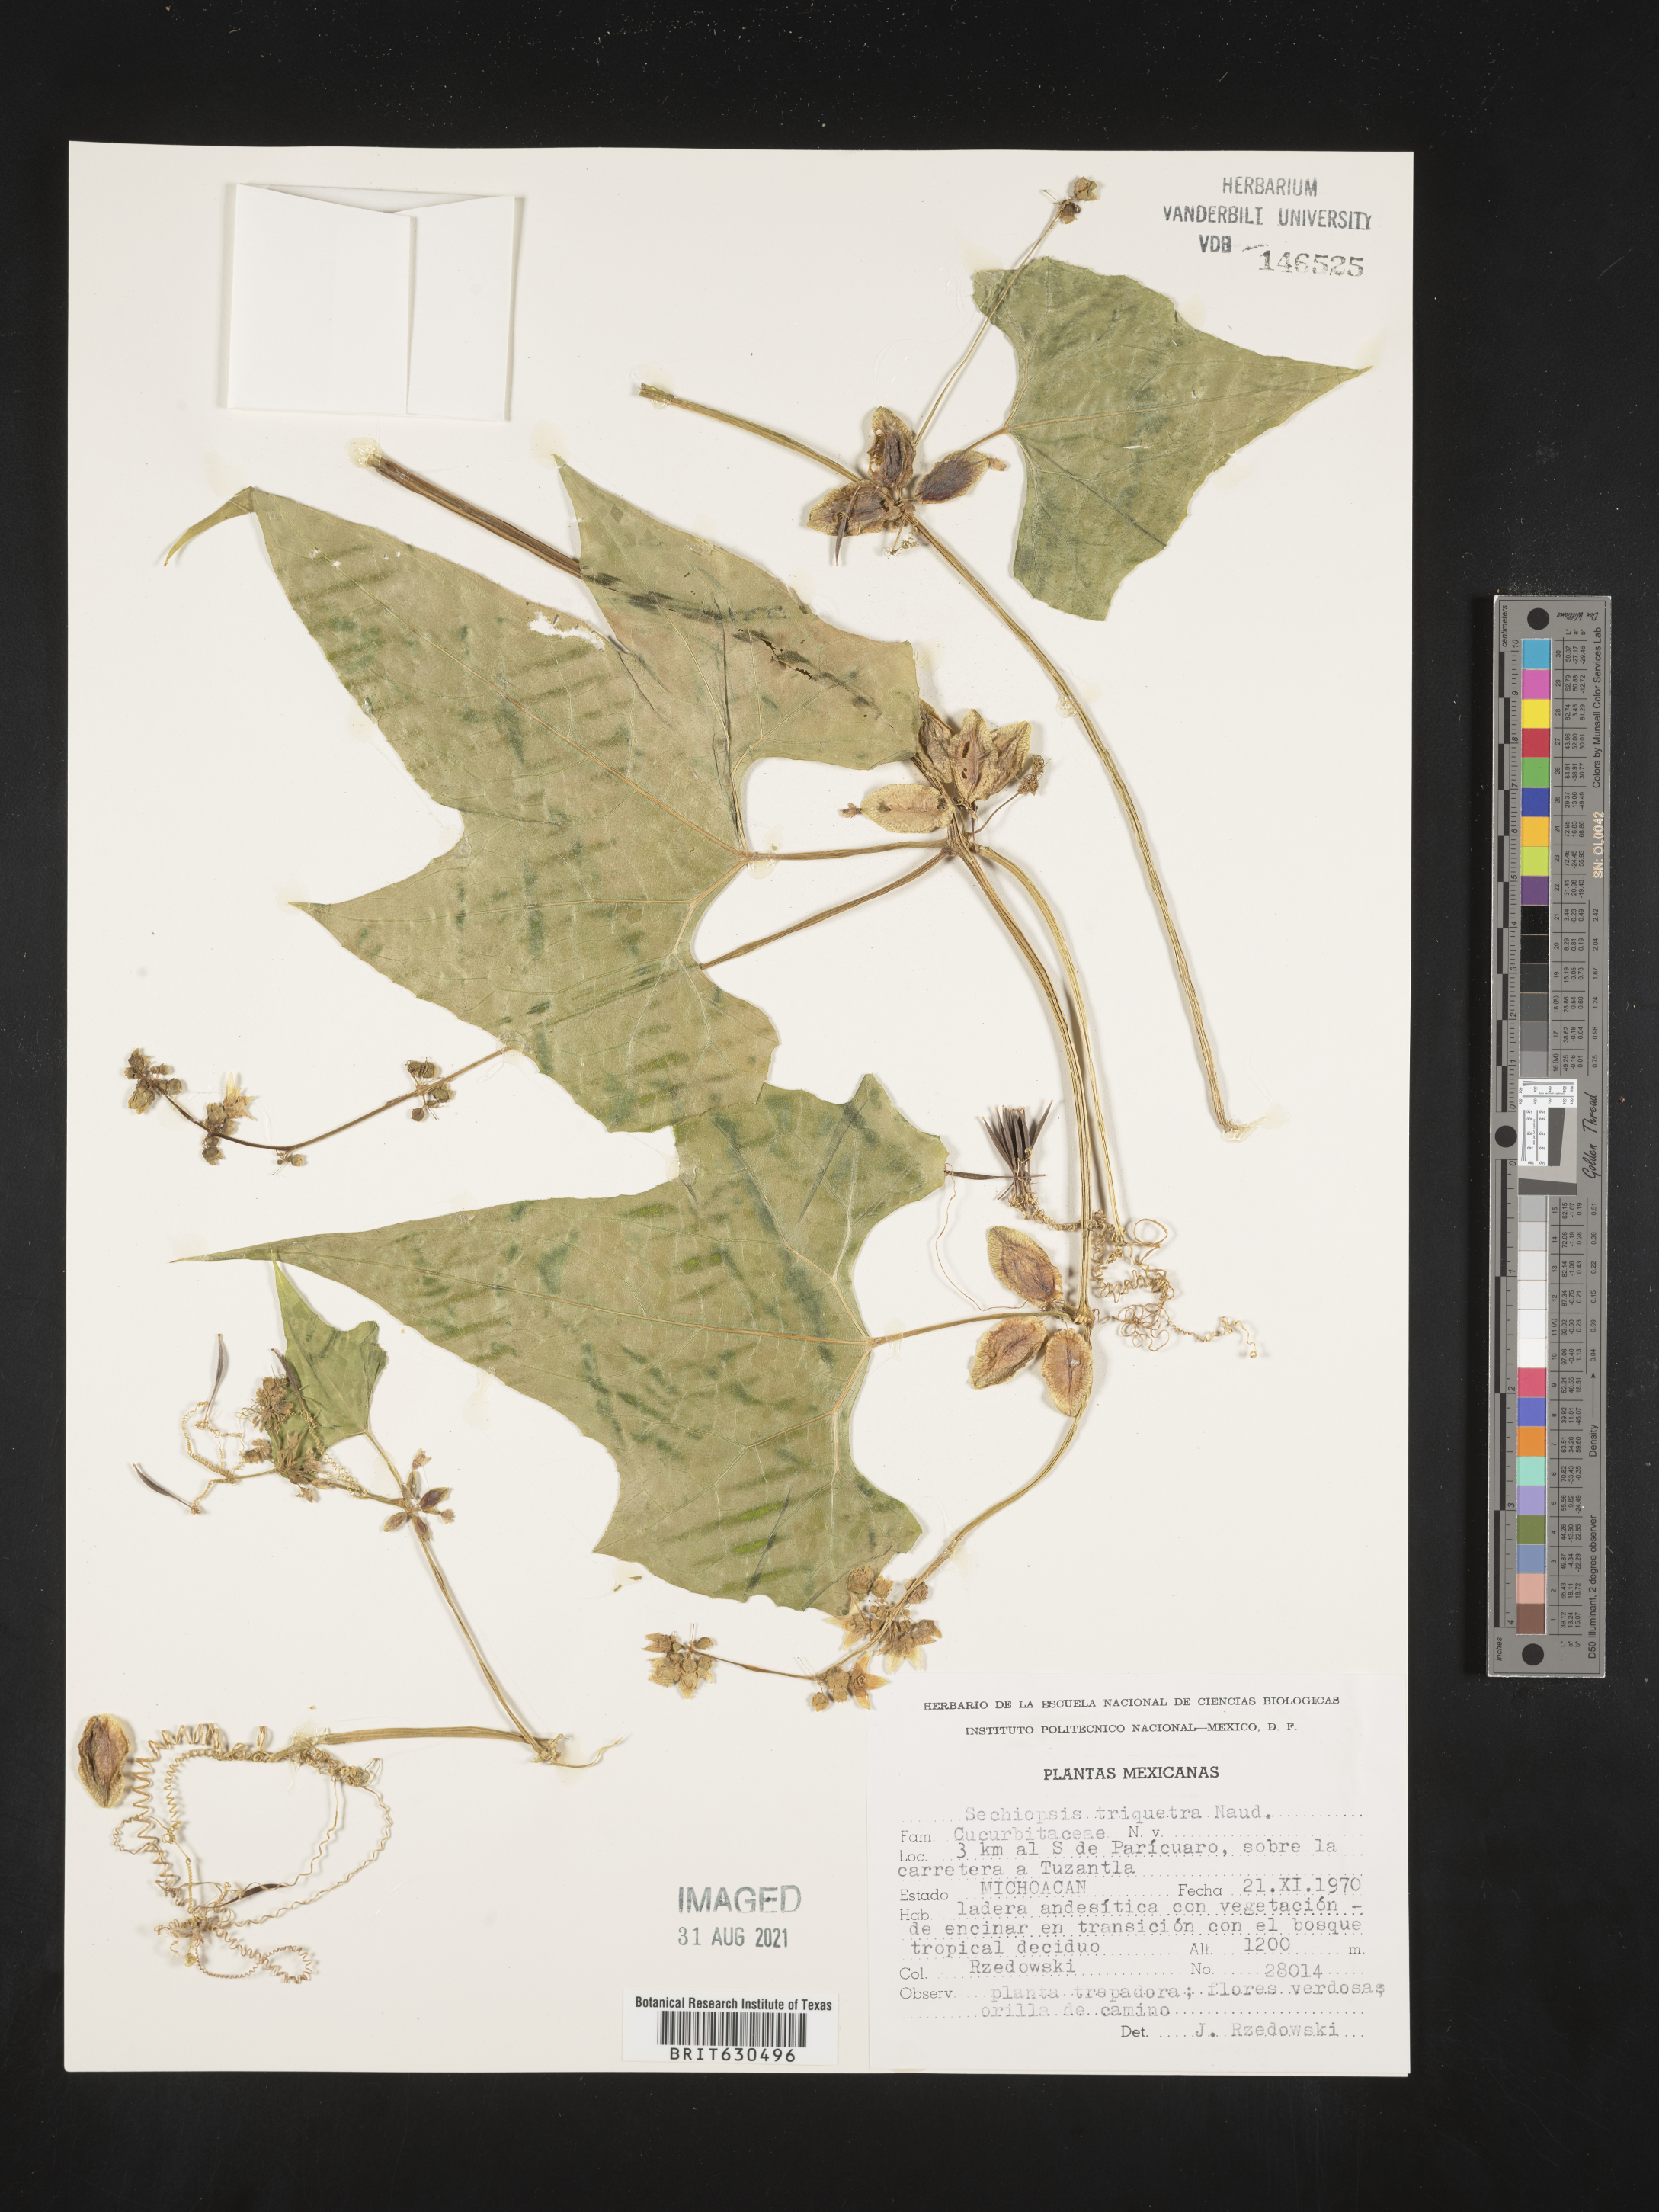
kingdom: Plantae
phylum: Tracheophyta
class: Magnoliopsida
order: Cucurbitales
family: Cucurbitaceae
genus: Sechiopsis
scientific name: Sechiopsis triquetra
